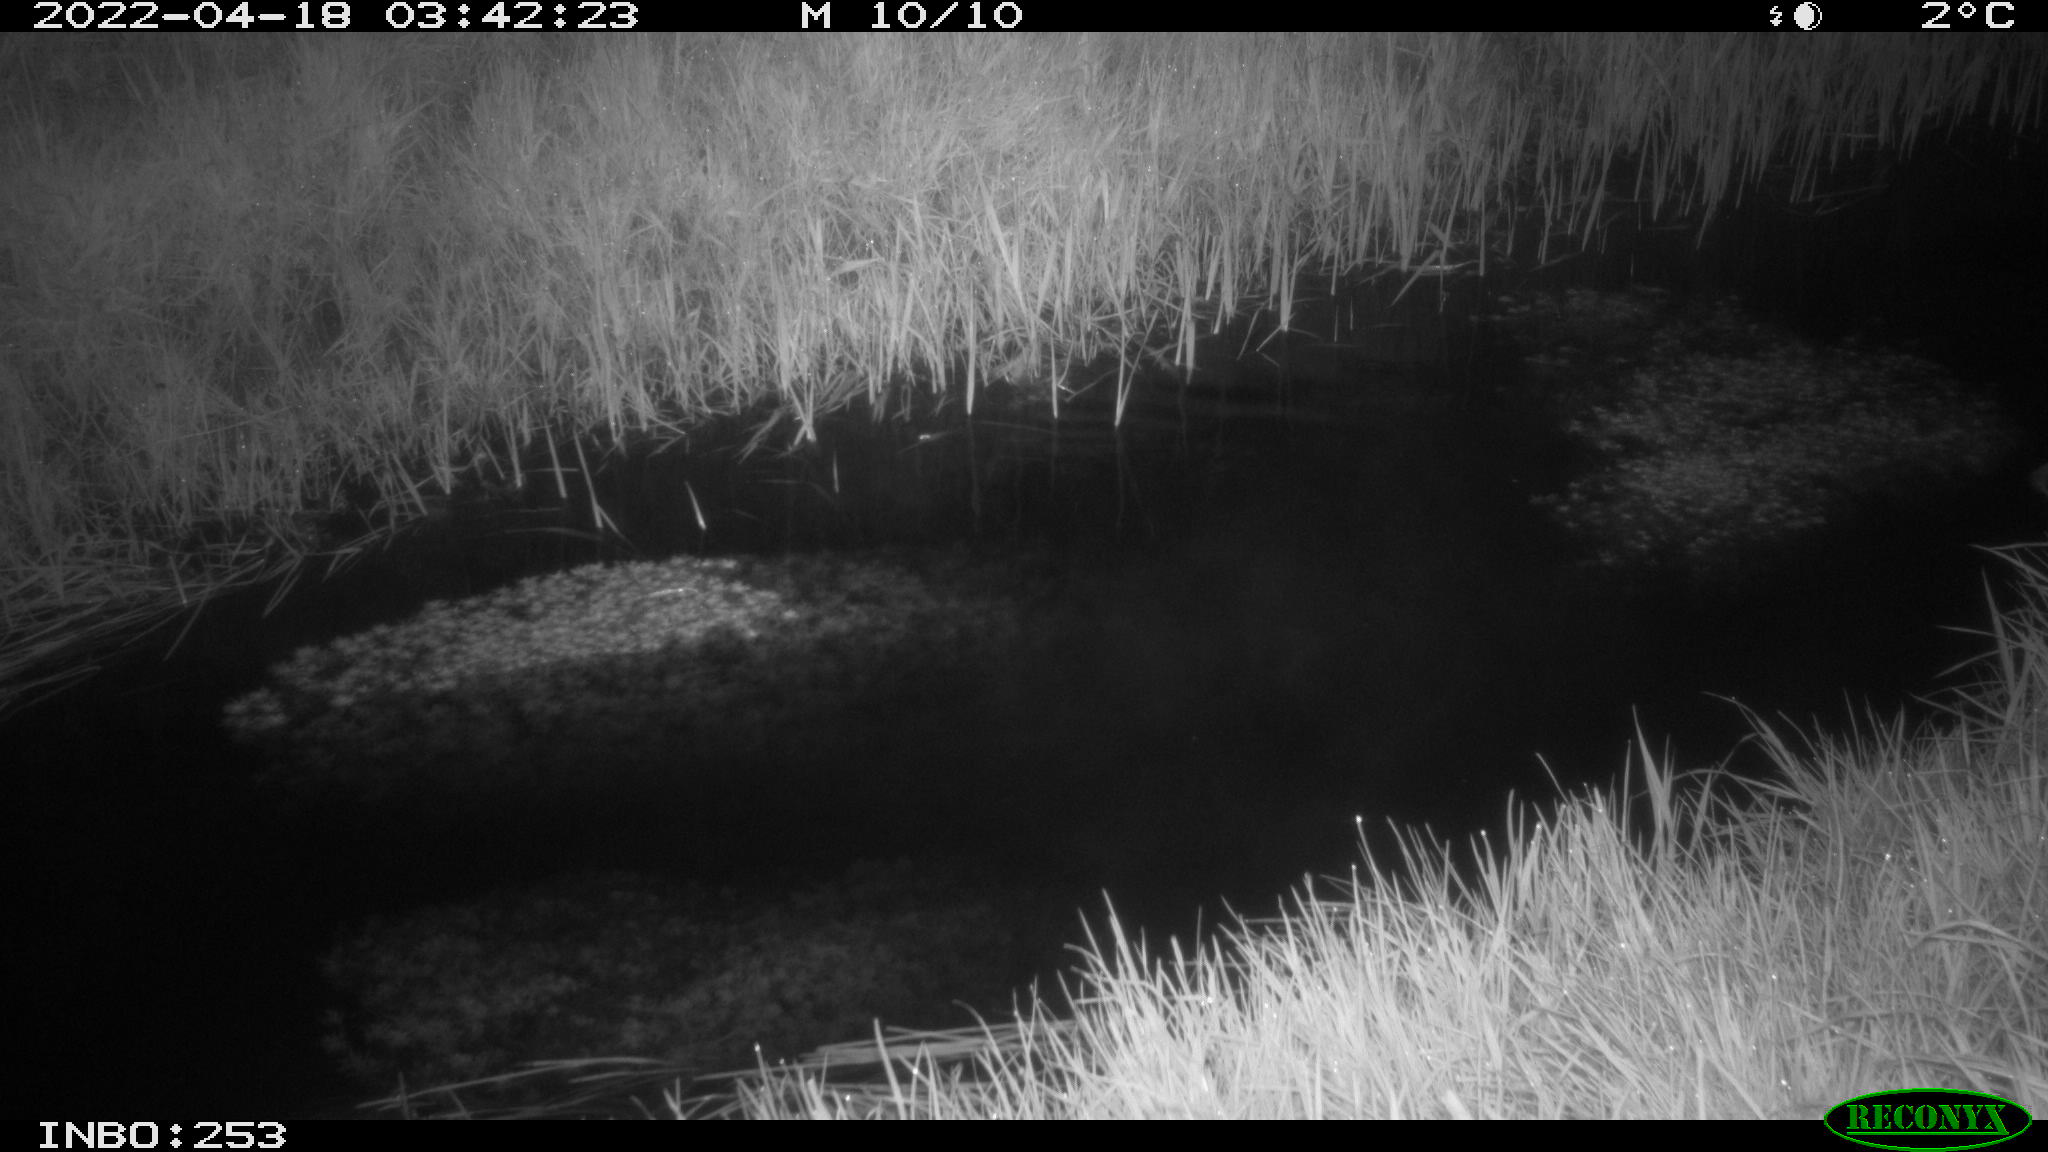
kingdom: Animalia
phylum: Chordata
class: Aves
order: Anseriformes
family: Anatidae
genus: Anas
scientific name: Anas platyrhynchos
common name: Mallard
